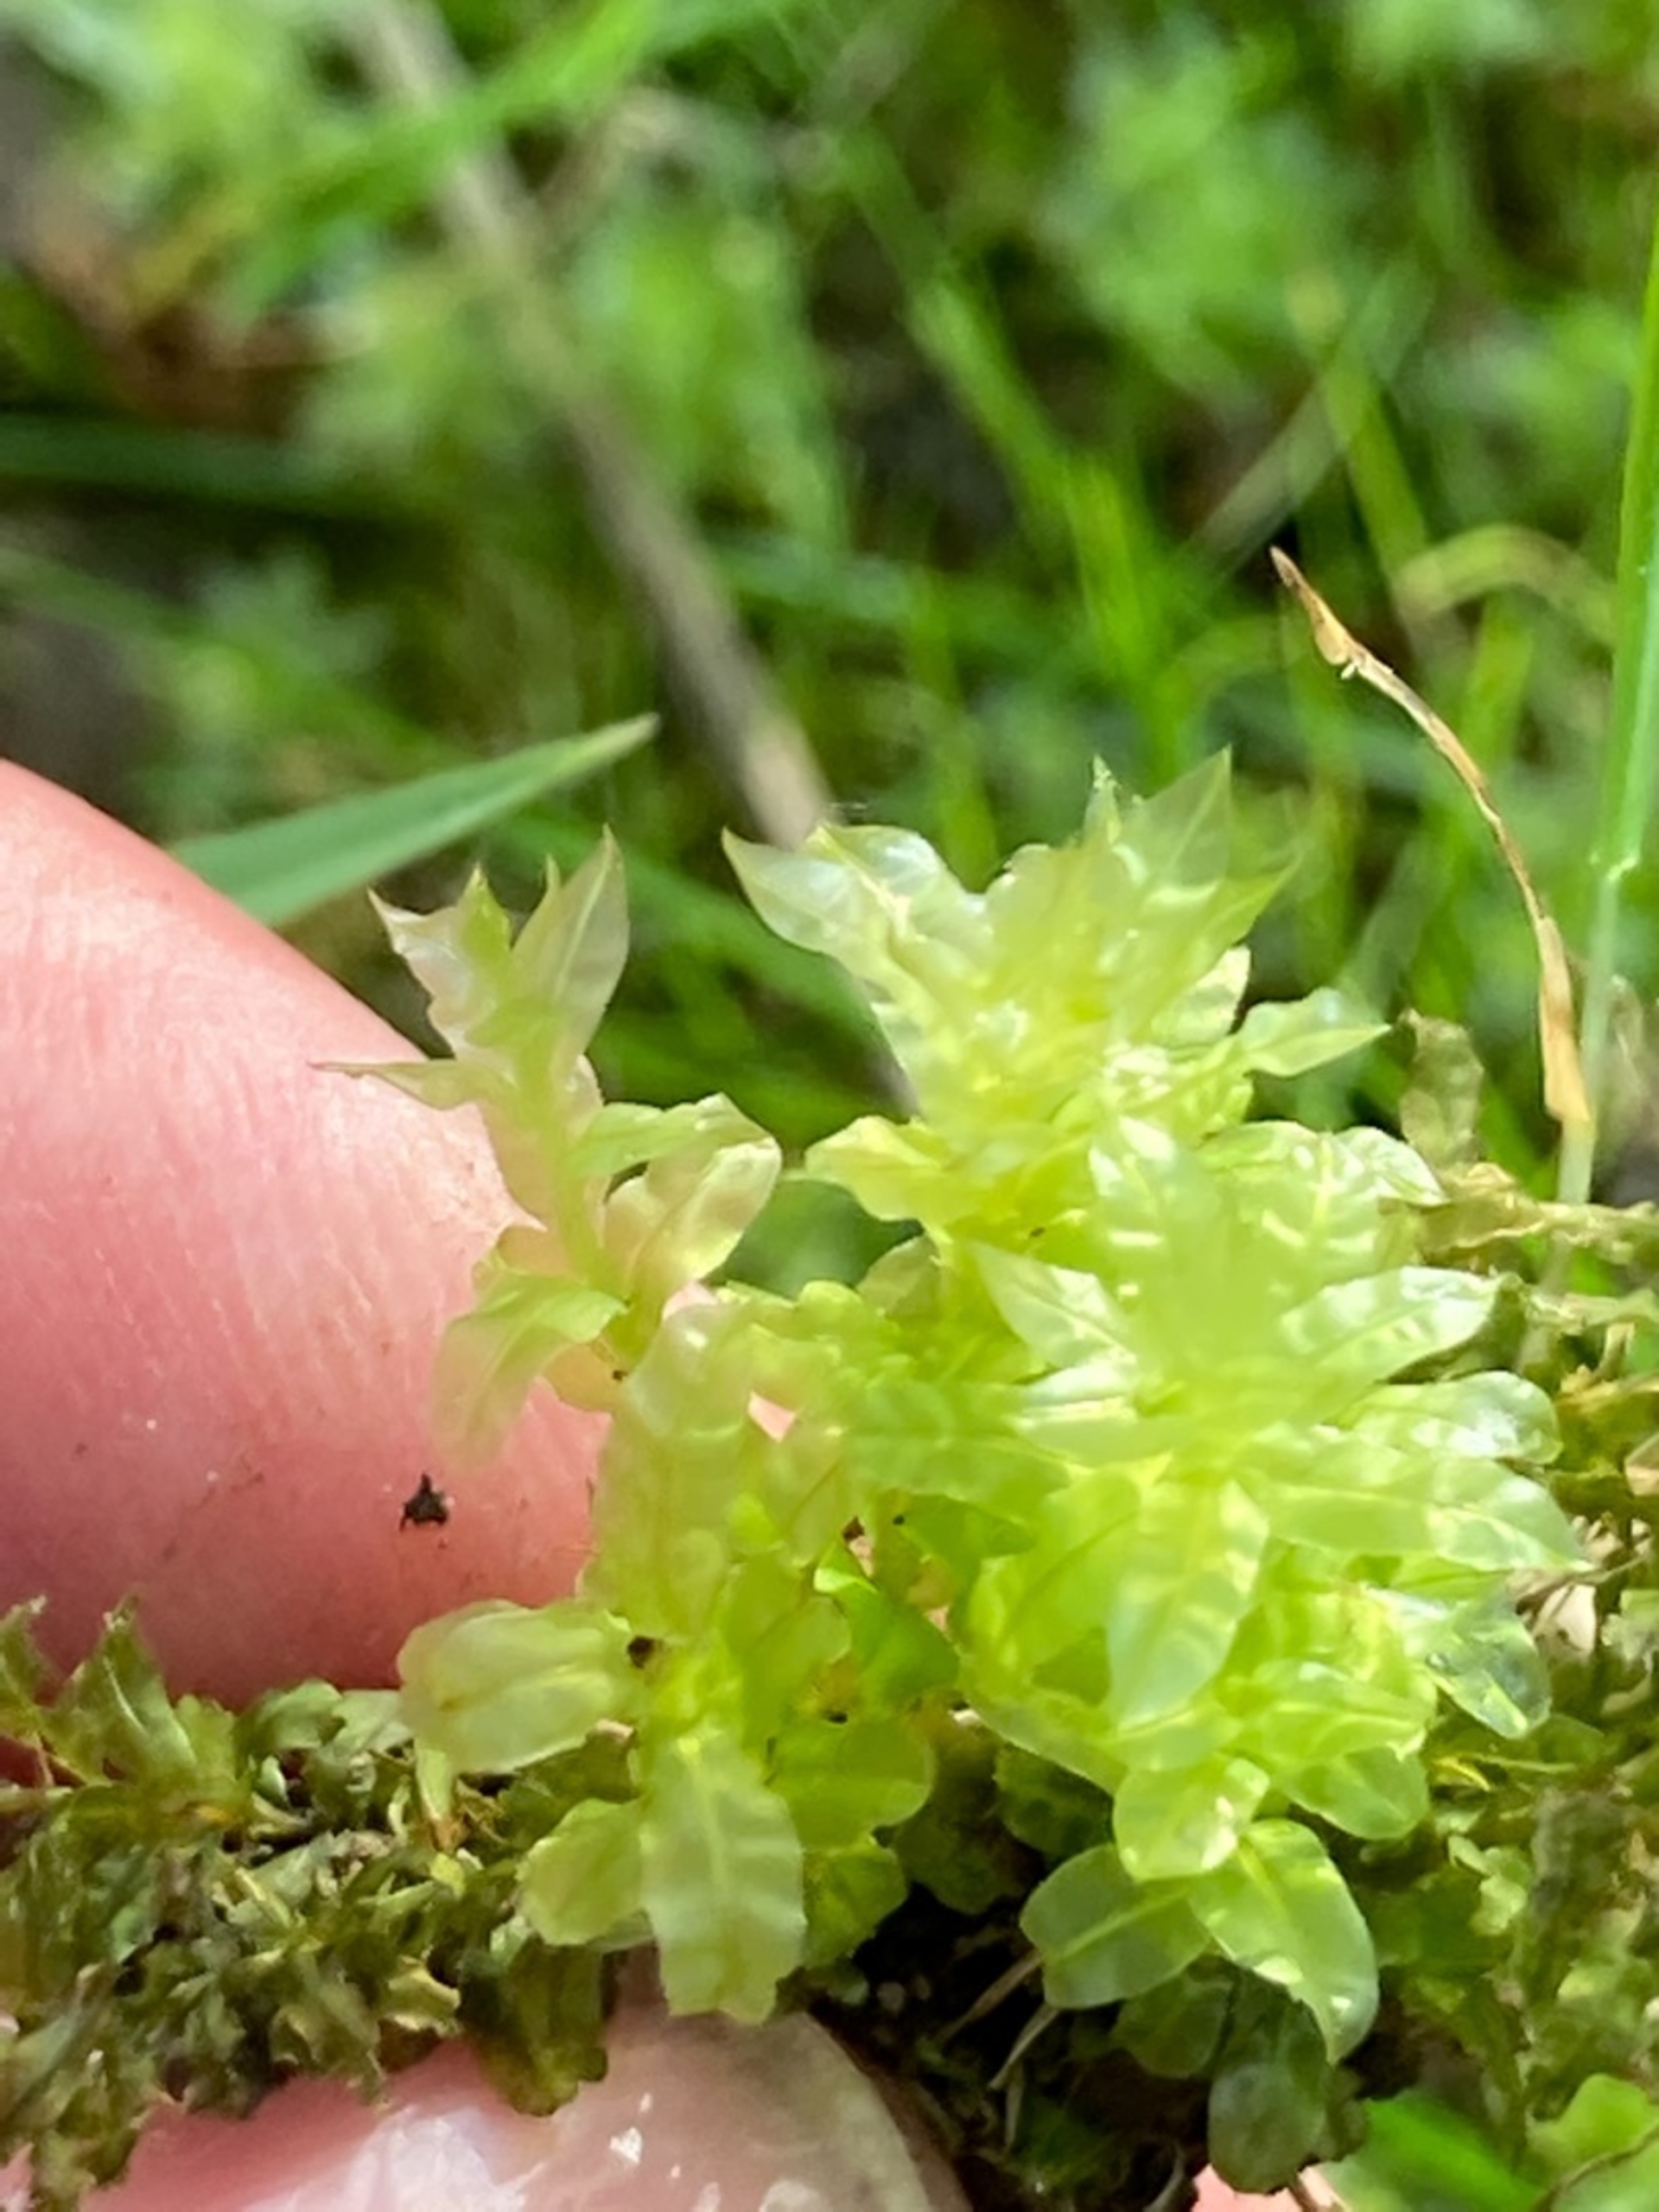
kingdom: Plantae
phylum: Bryophyta
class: Bryopsida
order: Bryales
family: Mniaceae
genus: Plagiomnium
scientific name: Plagiomnium undulatum
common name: Bølget krybstjerne
